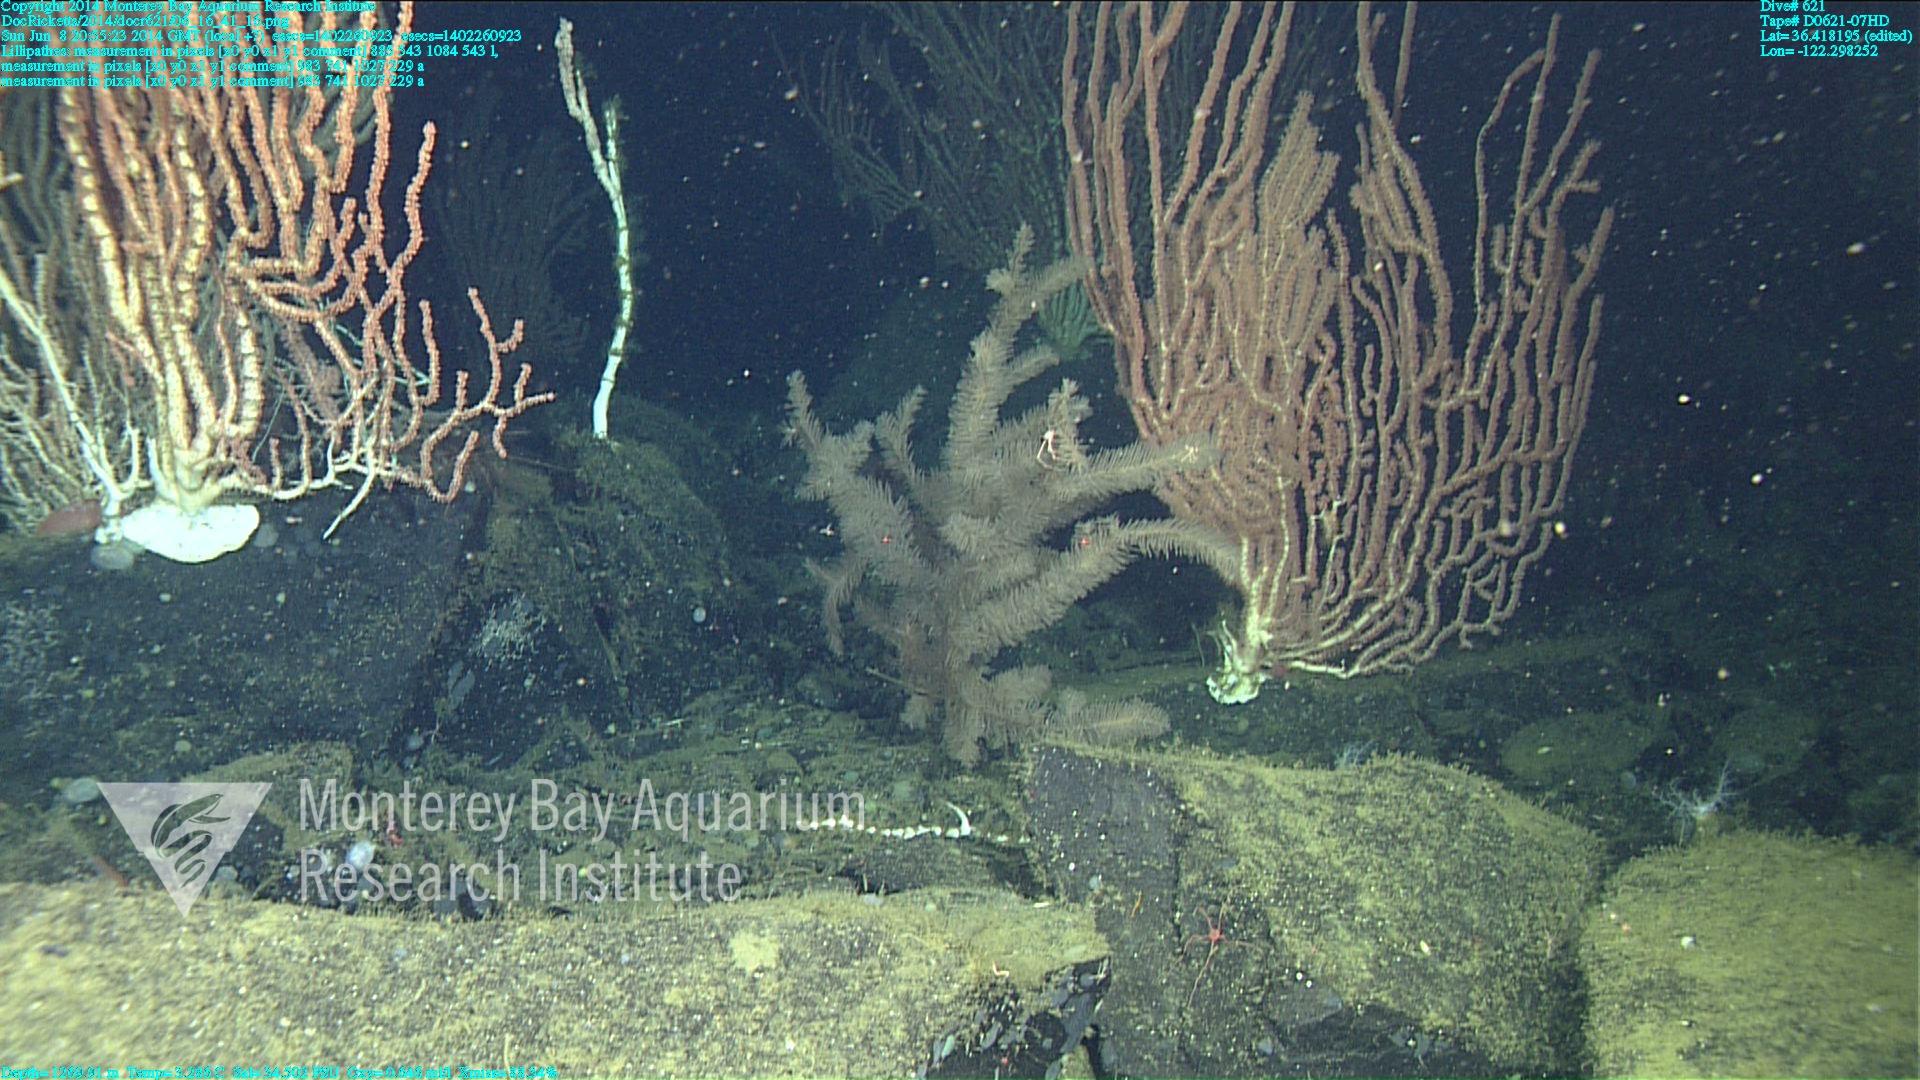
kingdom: Animalia
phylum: Cnidaria
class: Anthozoa
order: Antipatharia
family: Schizopathidae
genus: Lillipathes
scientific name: Lillipathes
